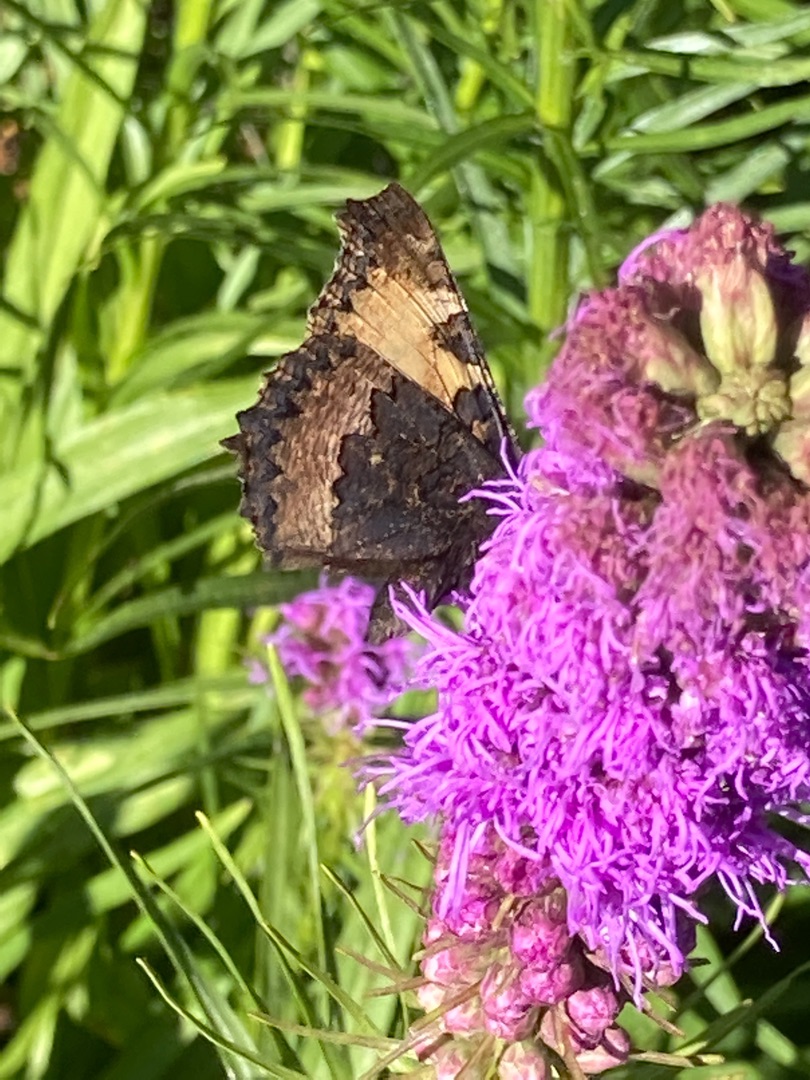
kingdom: Animalia
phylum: Arthropoda
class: Insecta
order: Lepidoptera
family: Nymphalidae
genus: Aglais
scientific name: Aglais urticae
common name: Nældens takvinge
